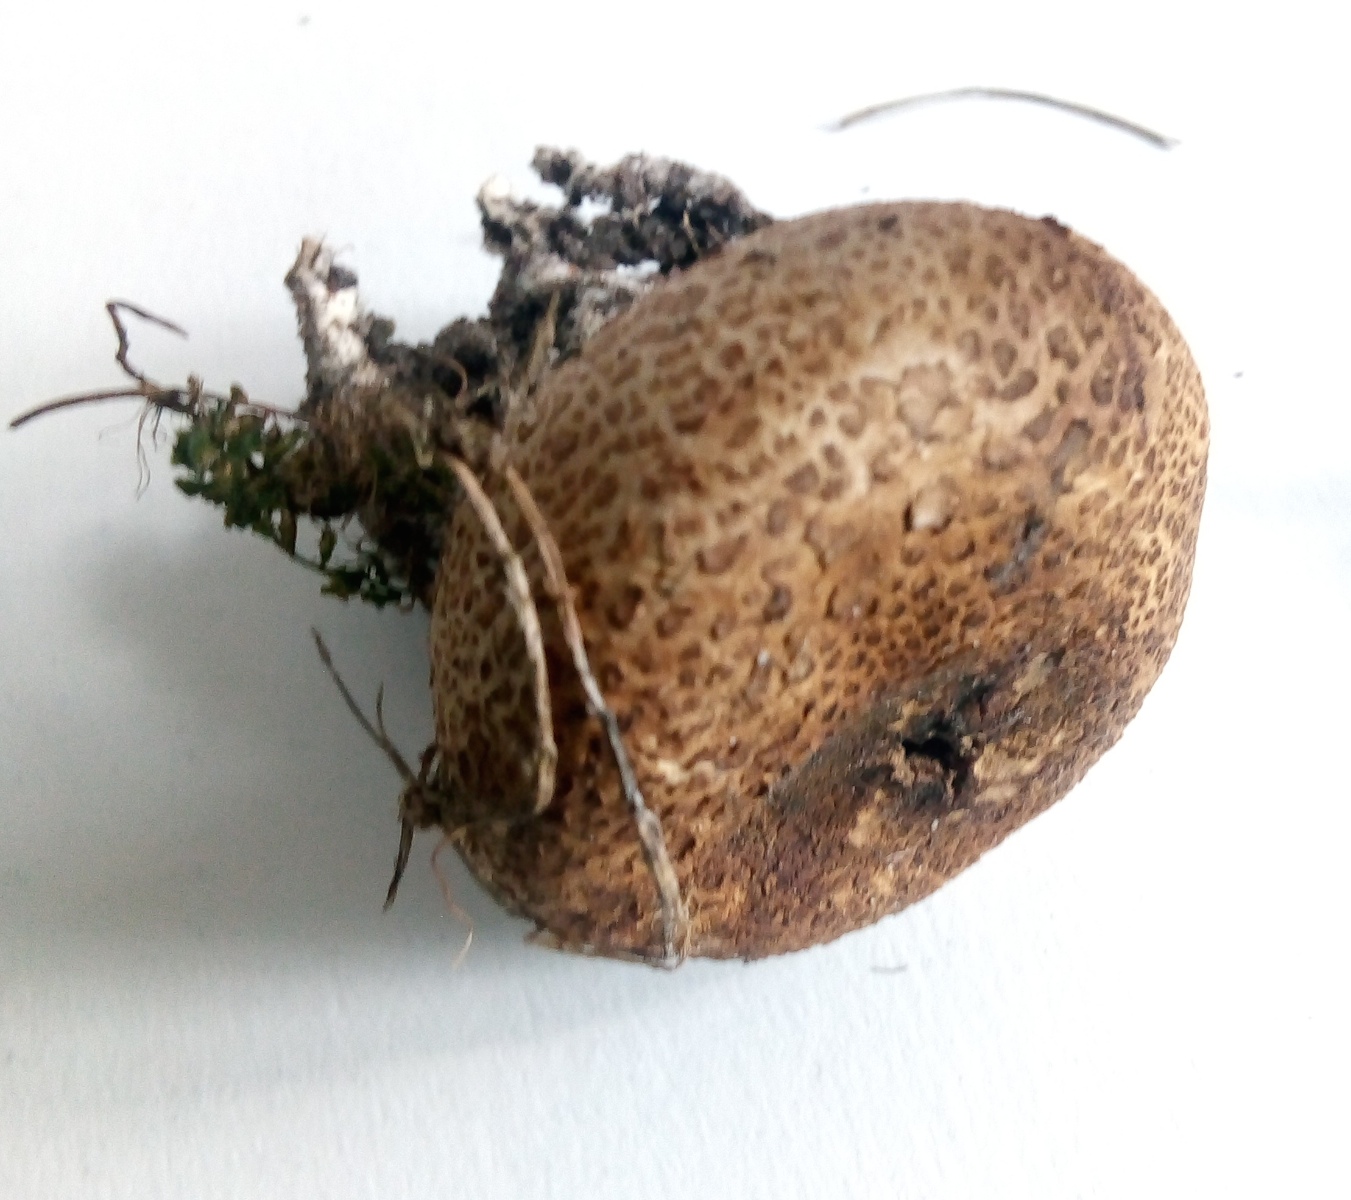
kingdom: Fungi
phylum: Basidiomycota
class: Agaricomycetes
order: Boletales
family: Sclerodermataceae
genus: Scleroderma
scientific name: Scleroderma verrucosum
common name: stilket bruskbold
